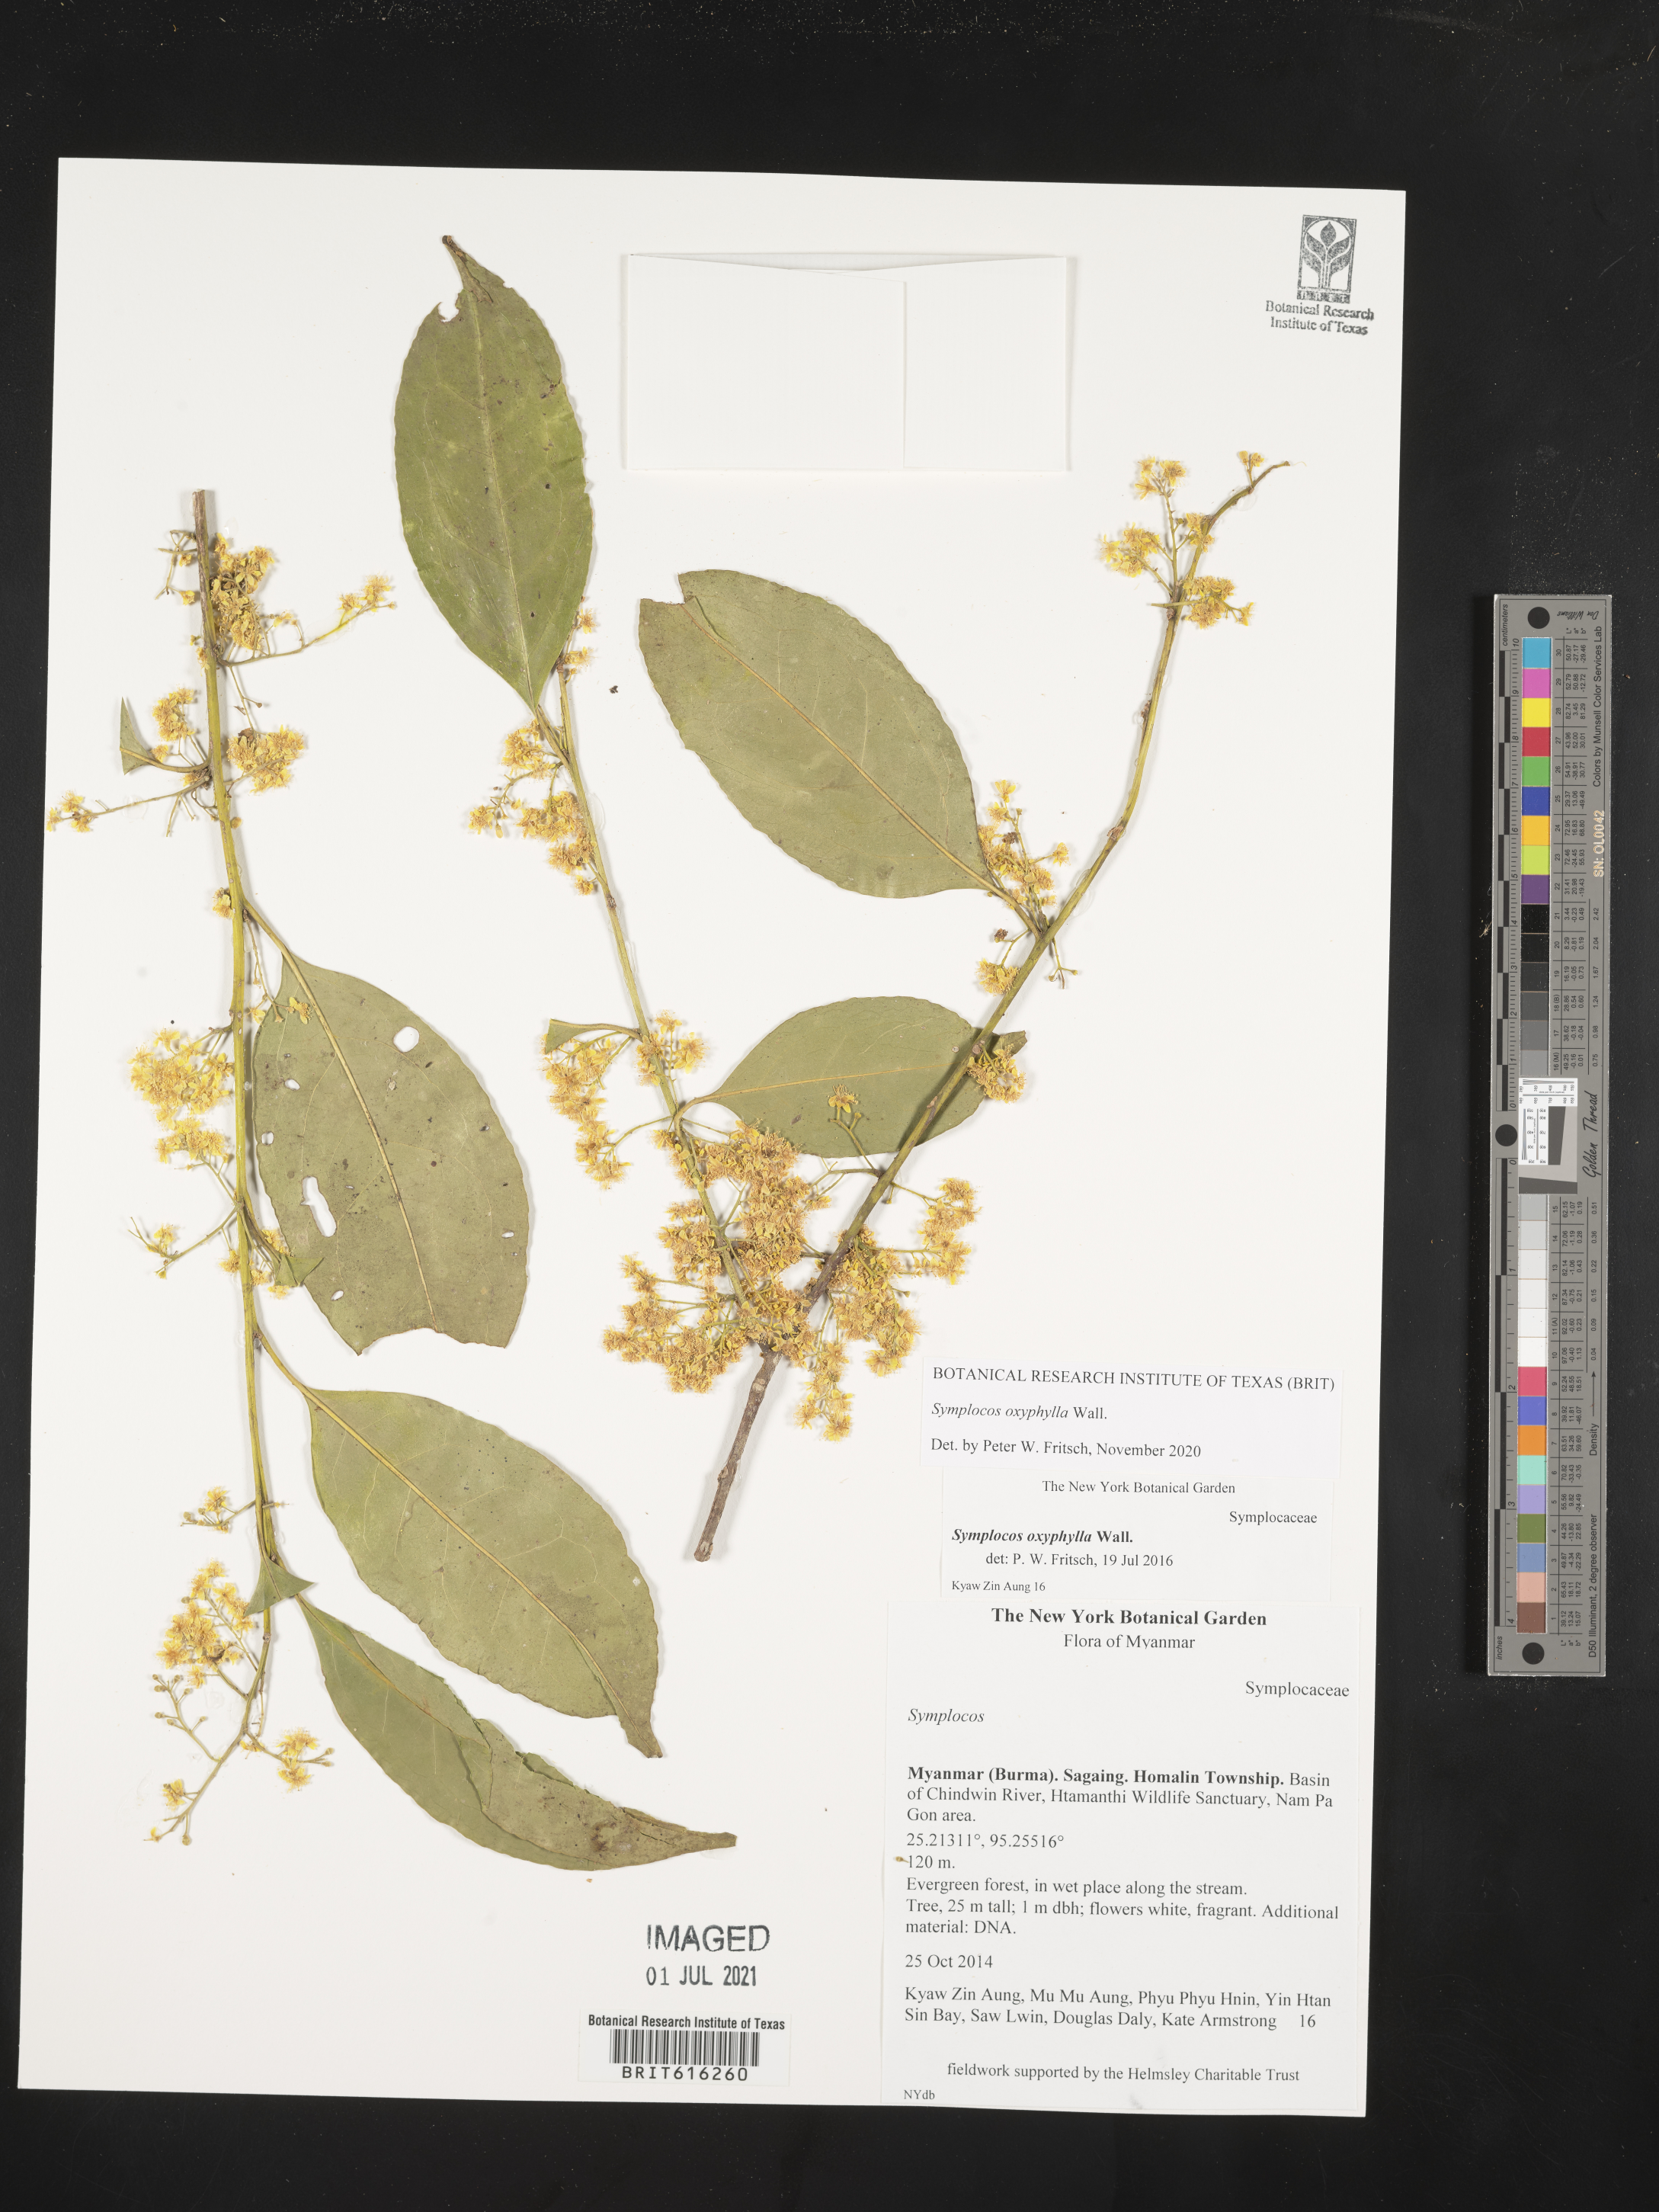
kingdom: Plantae
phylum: Tracheophyta
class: Magnoliopsida
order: Ericales
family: Symplocaceae
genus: Symplocos
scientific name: Symplocos oxyphylla
